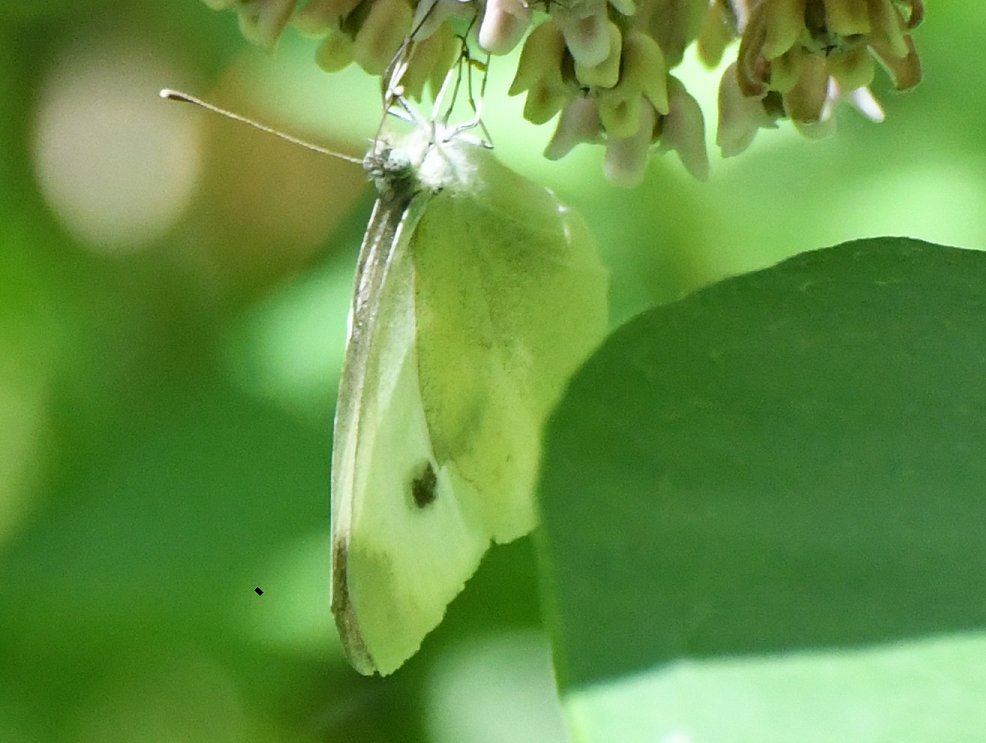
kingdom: Animalia
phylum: Arthropoda
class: Insecta
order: Lepidoptera
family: Pieridae
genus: Pieris
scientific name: Pieris rapae
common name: Cabbage White
